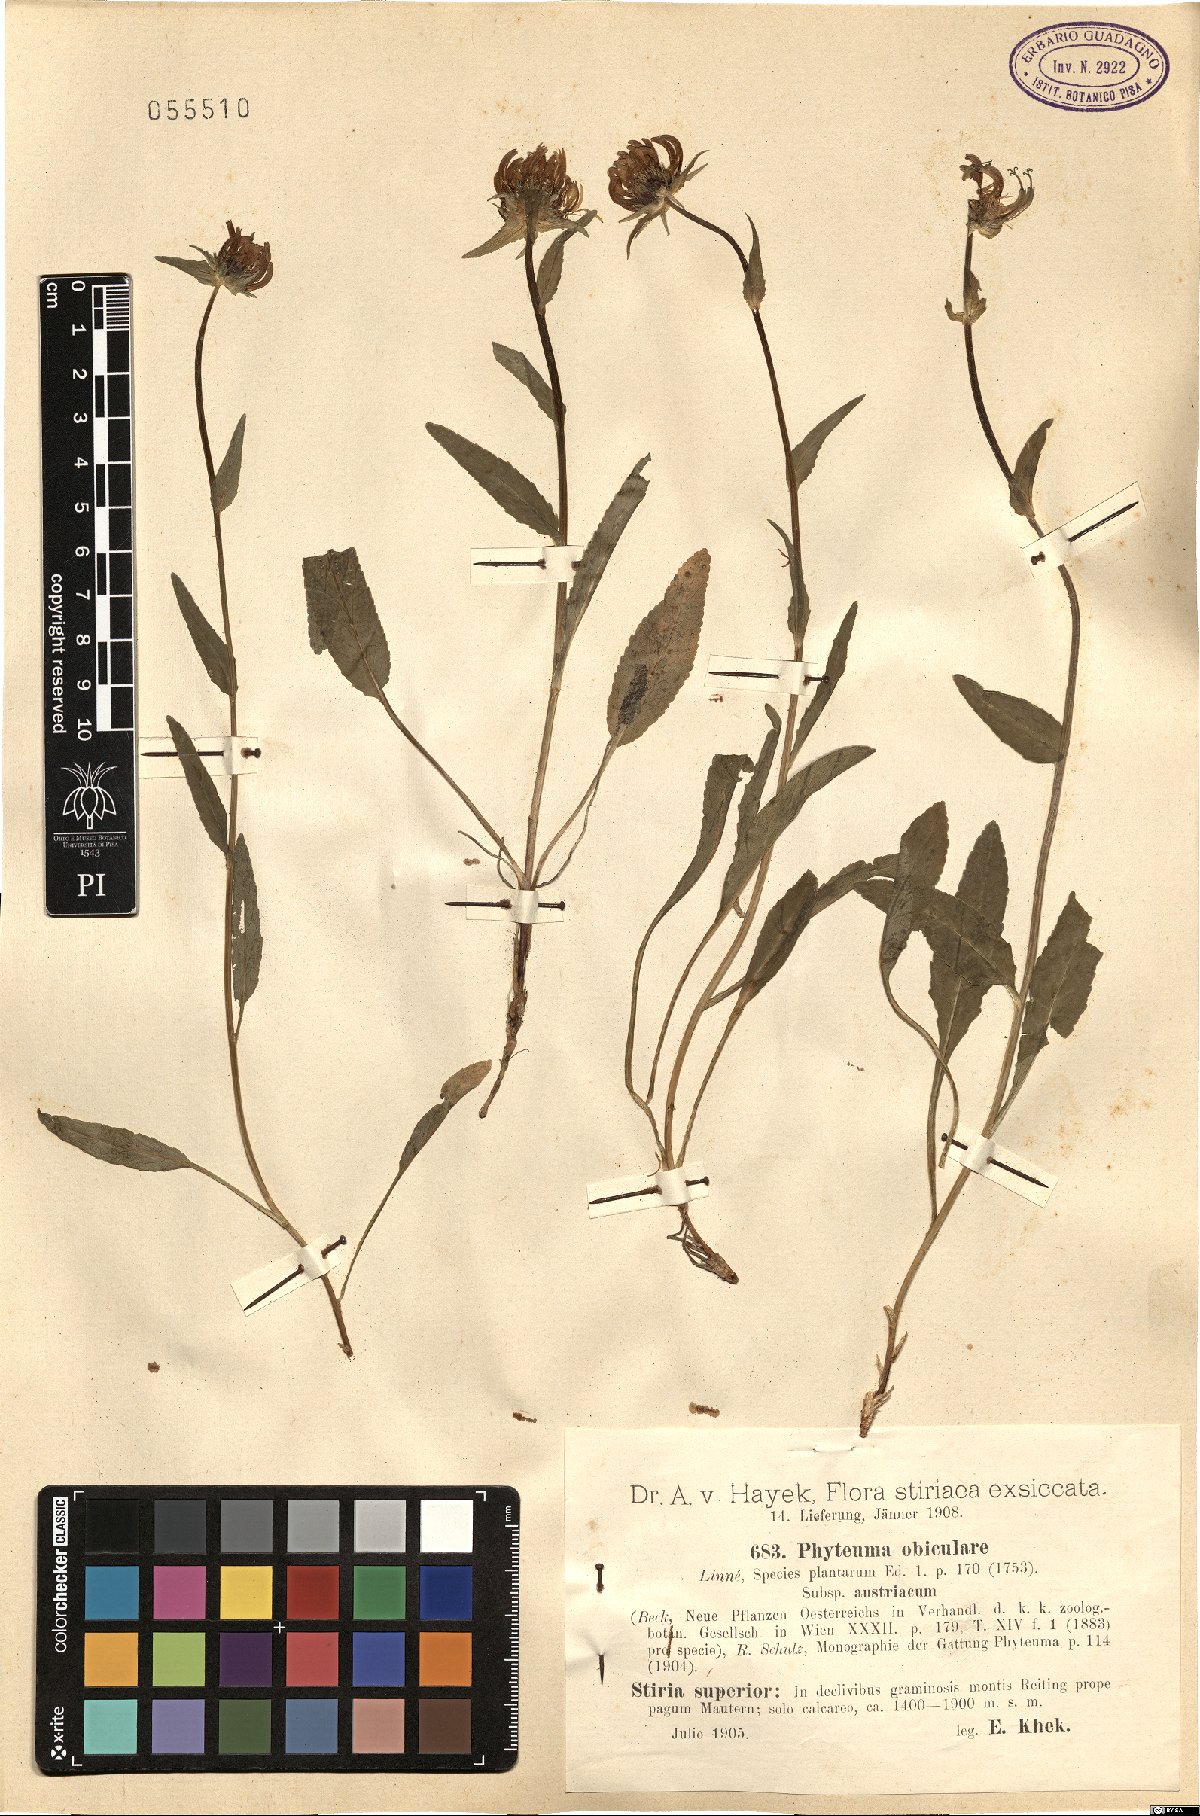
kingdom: Plantae
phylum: Tracheophyta
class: Magnoliopsida
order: Asterales
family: Campanulaceae
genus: Phyteuma
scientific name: Phyteuma orbiculare
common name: Round-headed rampion
